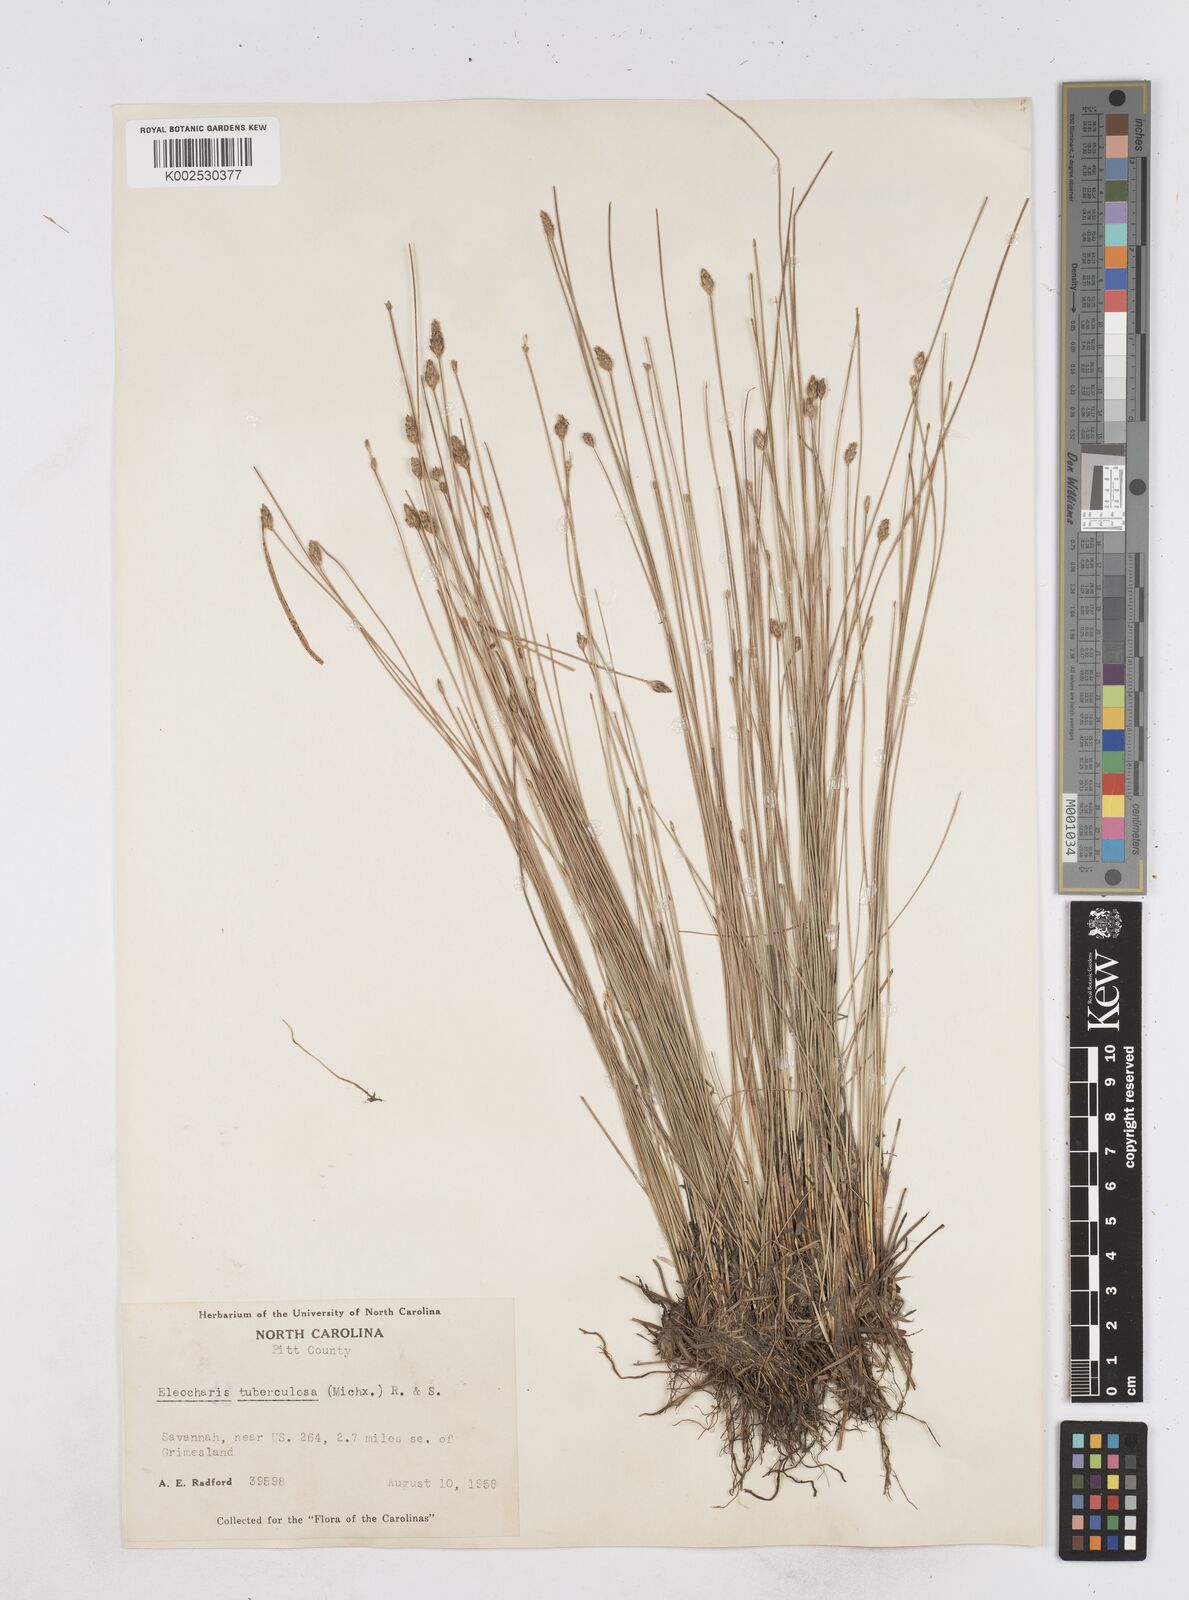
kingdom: Plantae
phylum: Tracheophyta
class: Liliopsida
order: Poales
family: Cyperaceae
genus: Eleocharis
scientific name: Eleocharis tuberculosa
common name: Cone-cup spikerush
